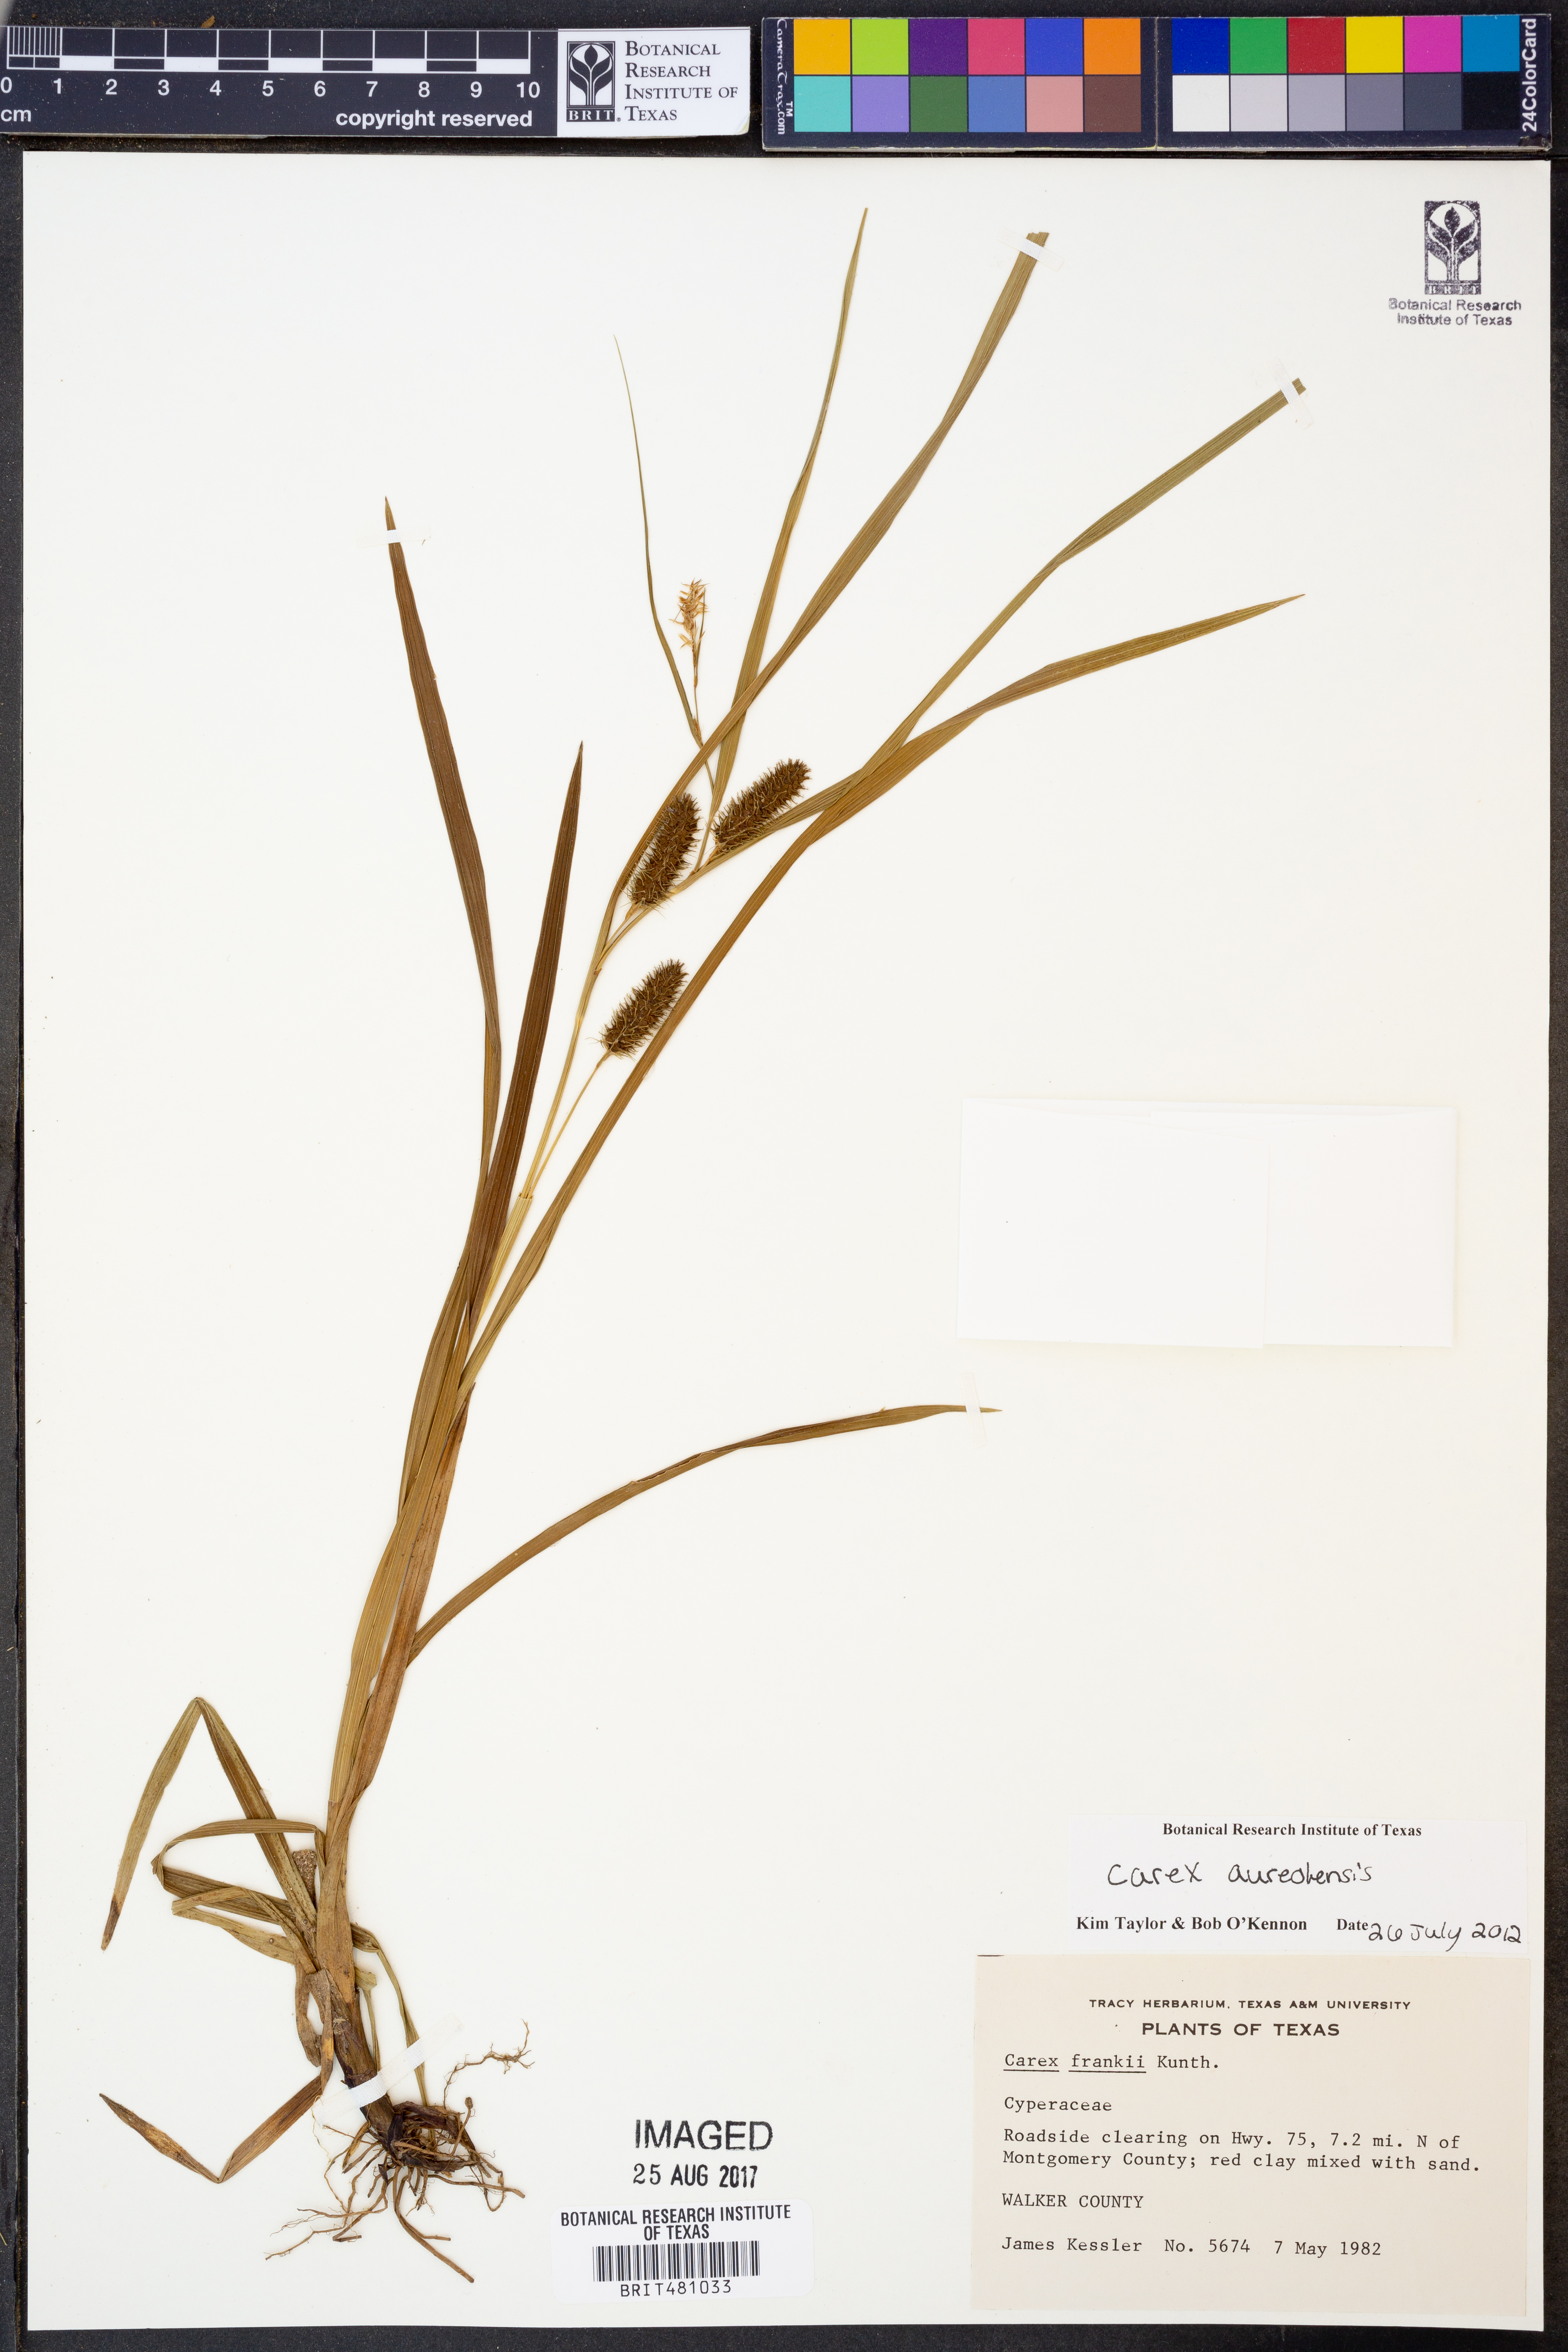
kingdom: Plantae
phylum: Tracheophyta
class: Liliopsida
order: Poales
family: Cyperaceae
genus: Carex
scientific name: Carex aureolensis
